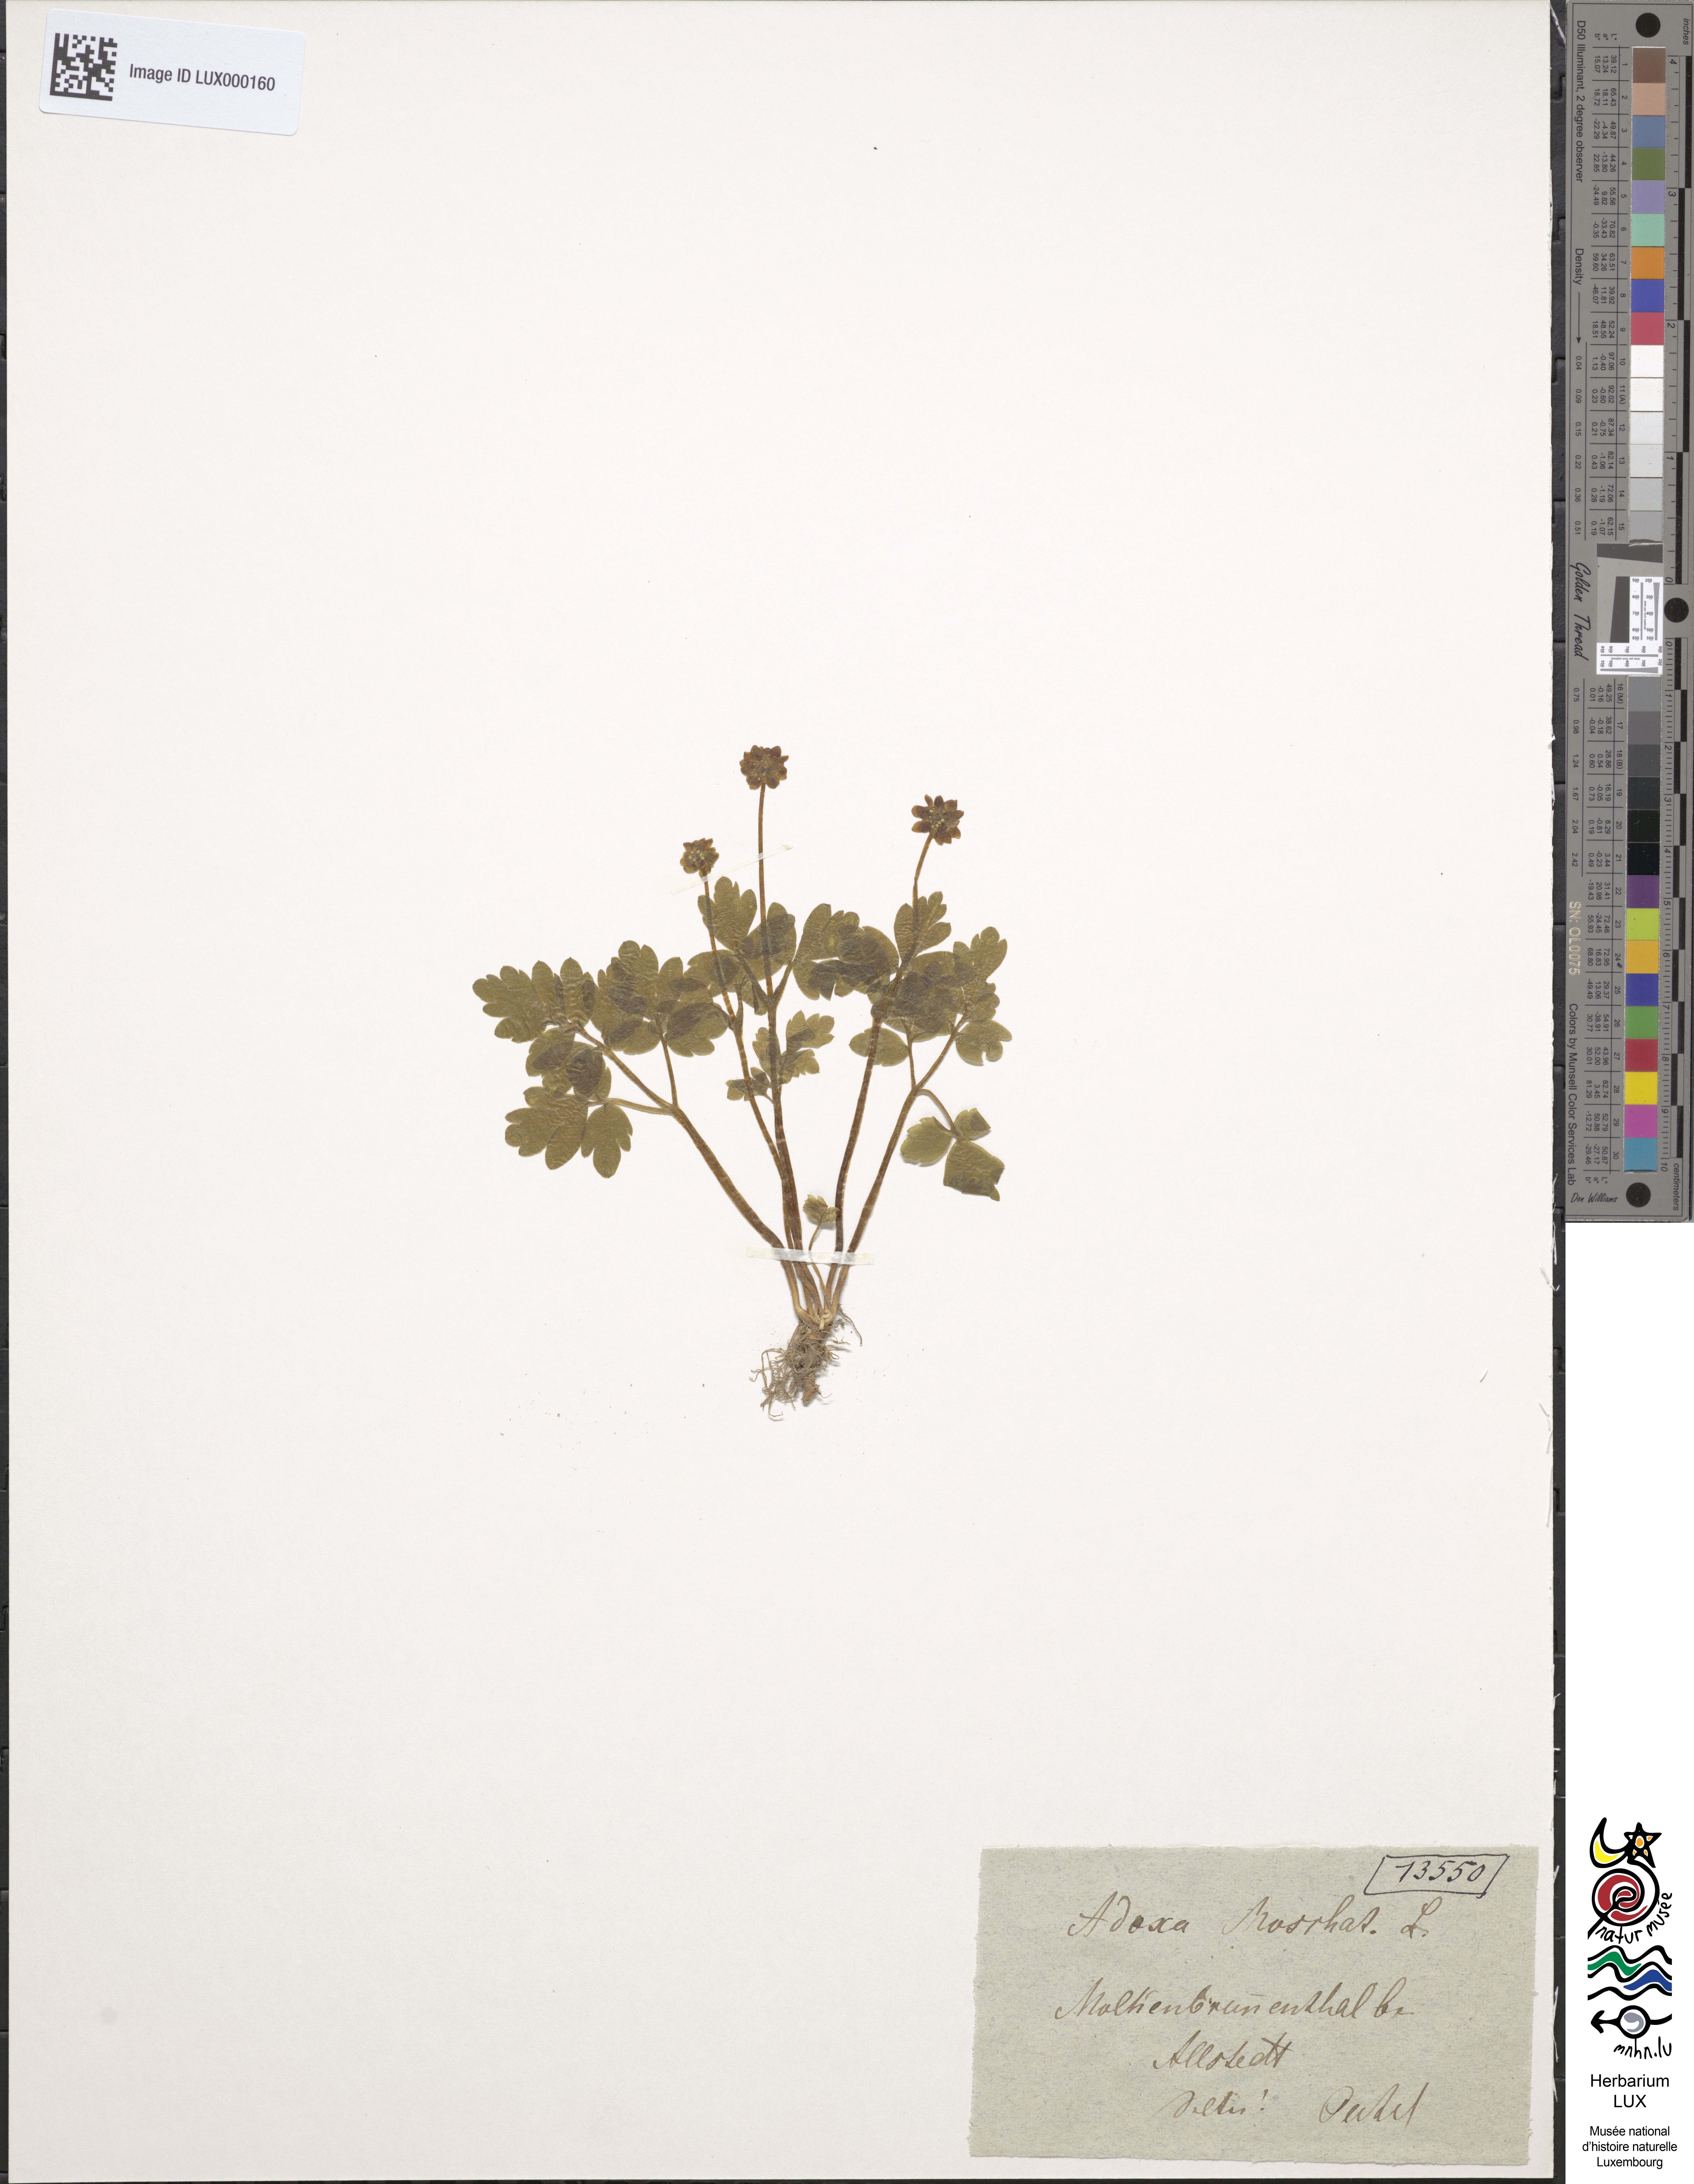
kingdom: Plantae
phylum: Tracheophyta
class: Magnoliopsida
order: Dipsacales
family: Viburnaceae
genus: Adoxa
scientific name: Adoxa moschatellina
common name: Moschatel
